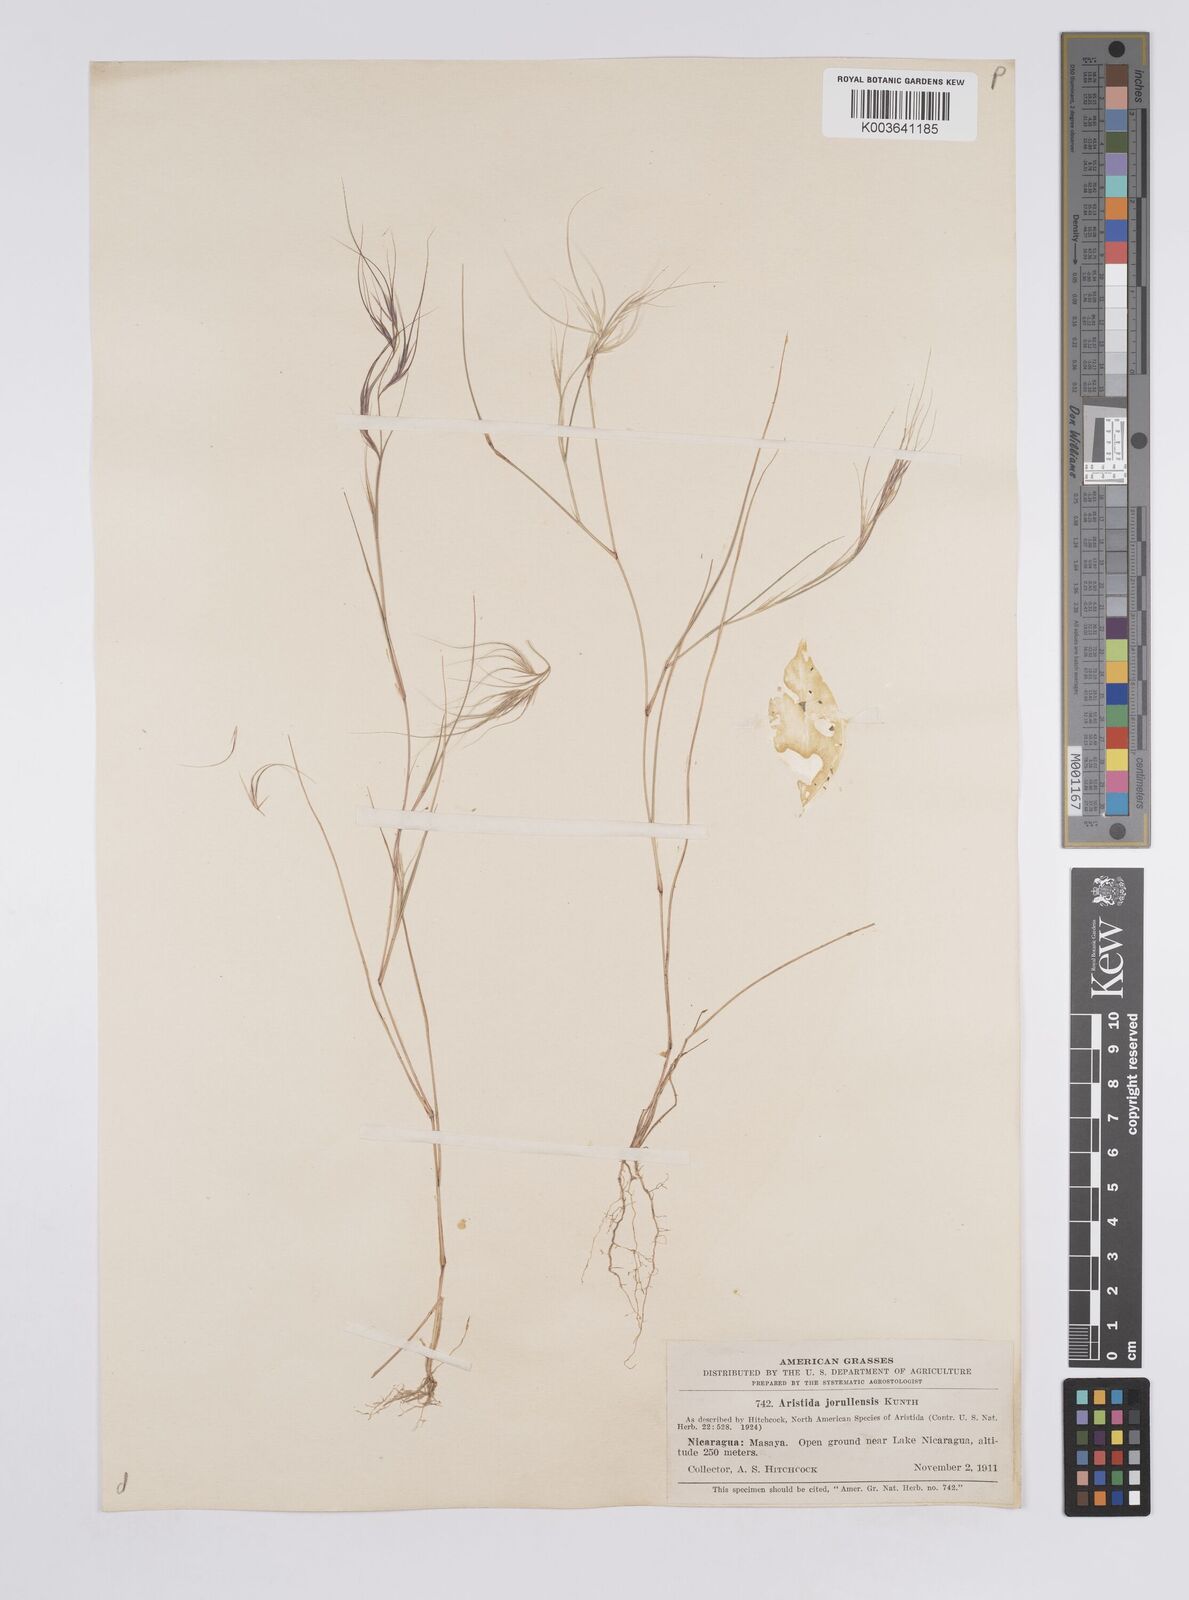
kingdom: Plantae
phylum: Tracheophyta
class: Liliopsida
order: Poales
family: Poaceae
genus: Aristida
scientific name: Aristida jorullensis
